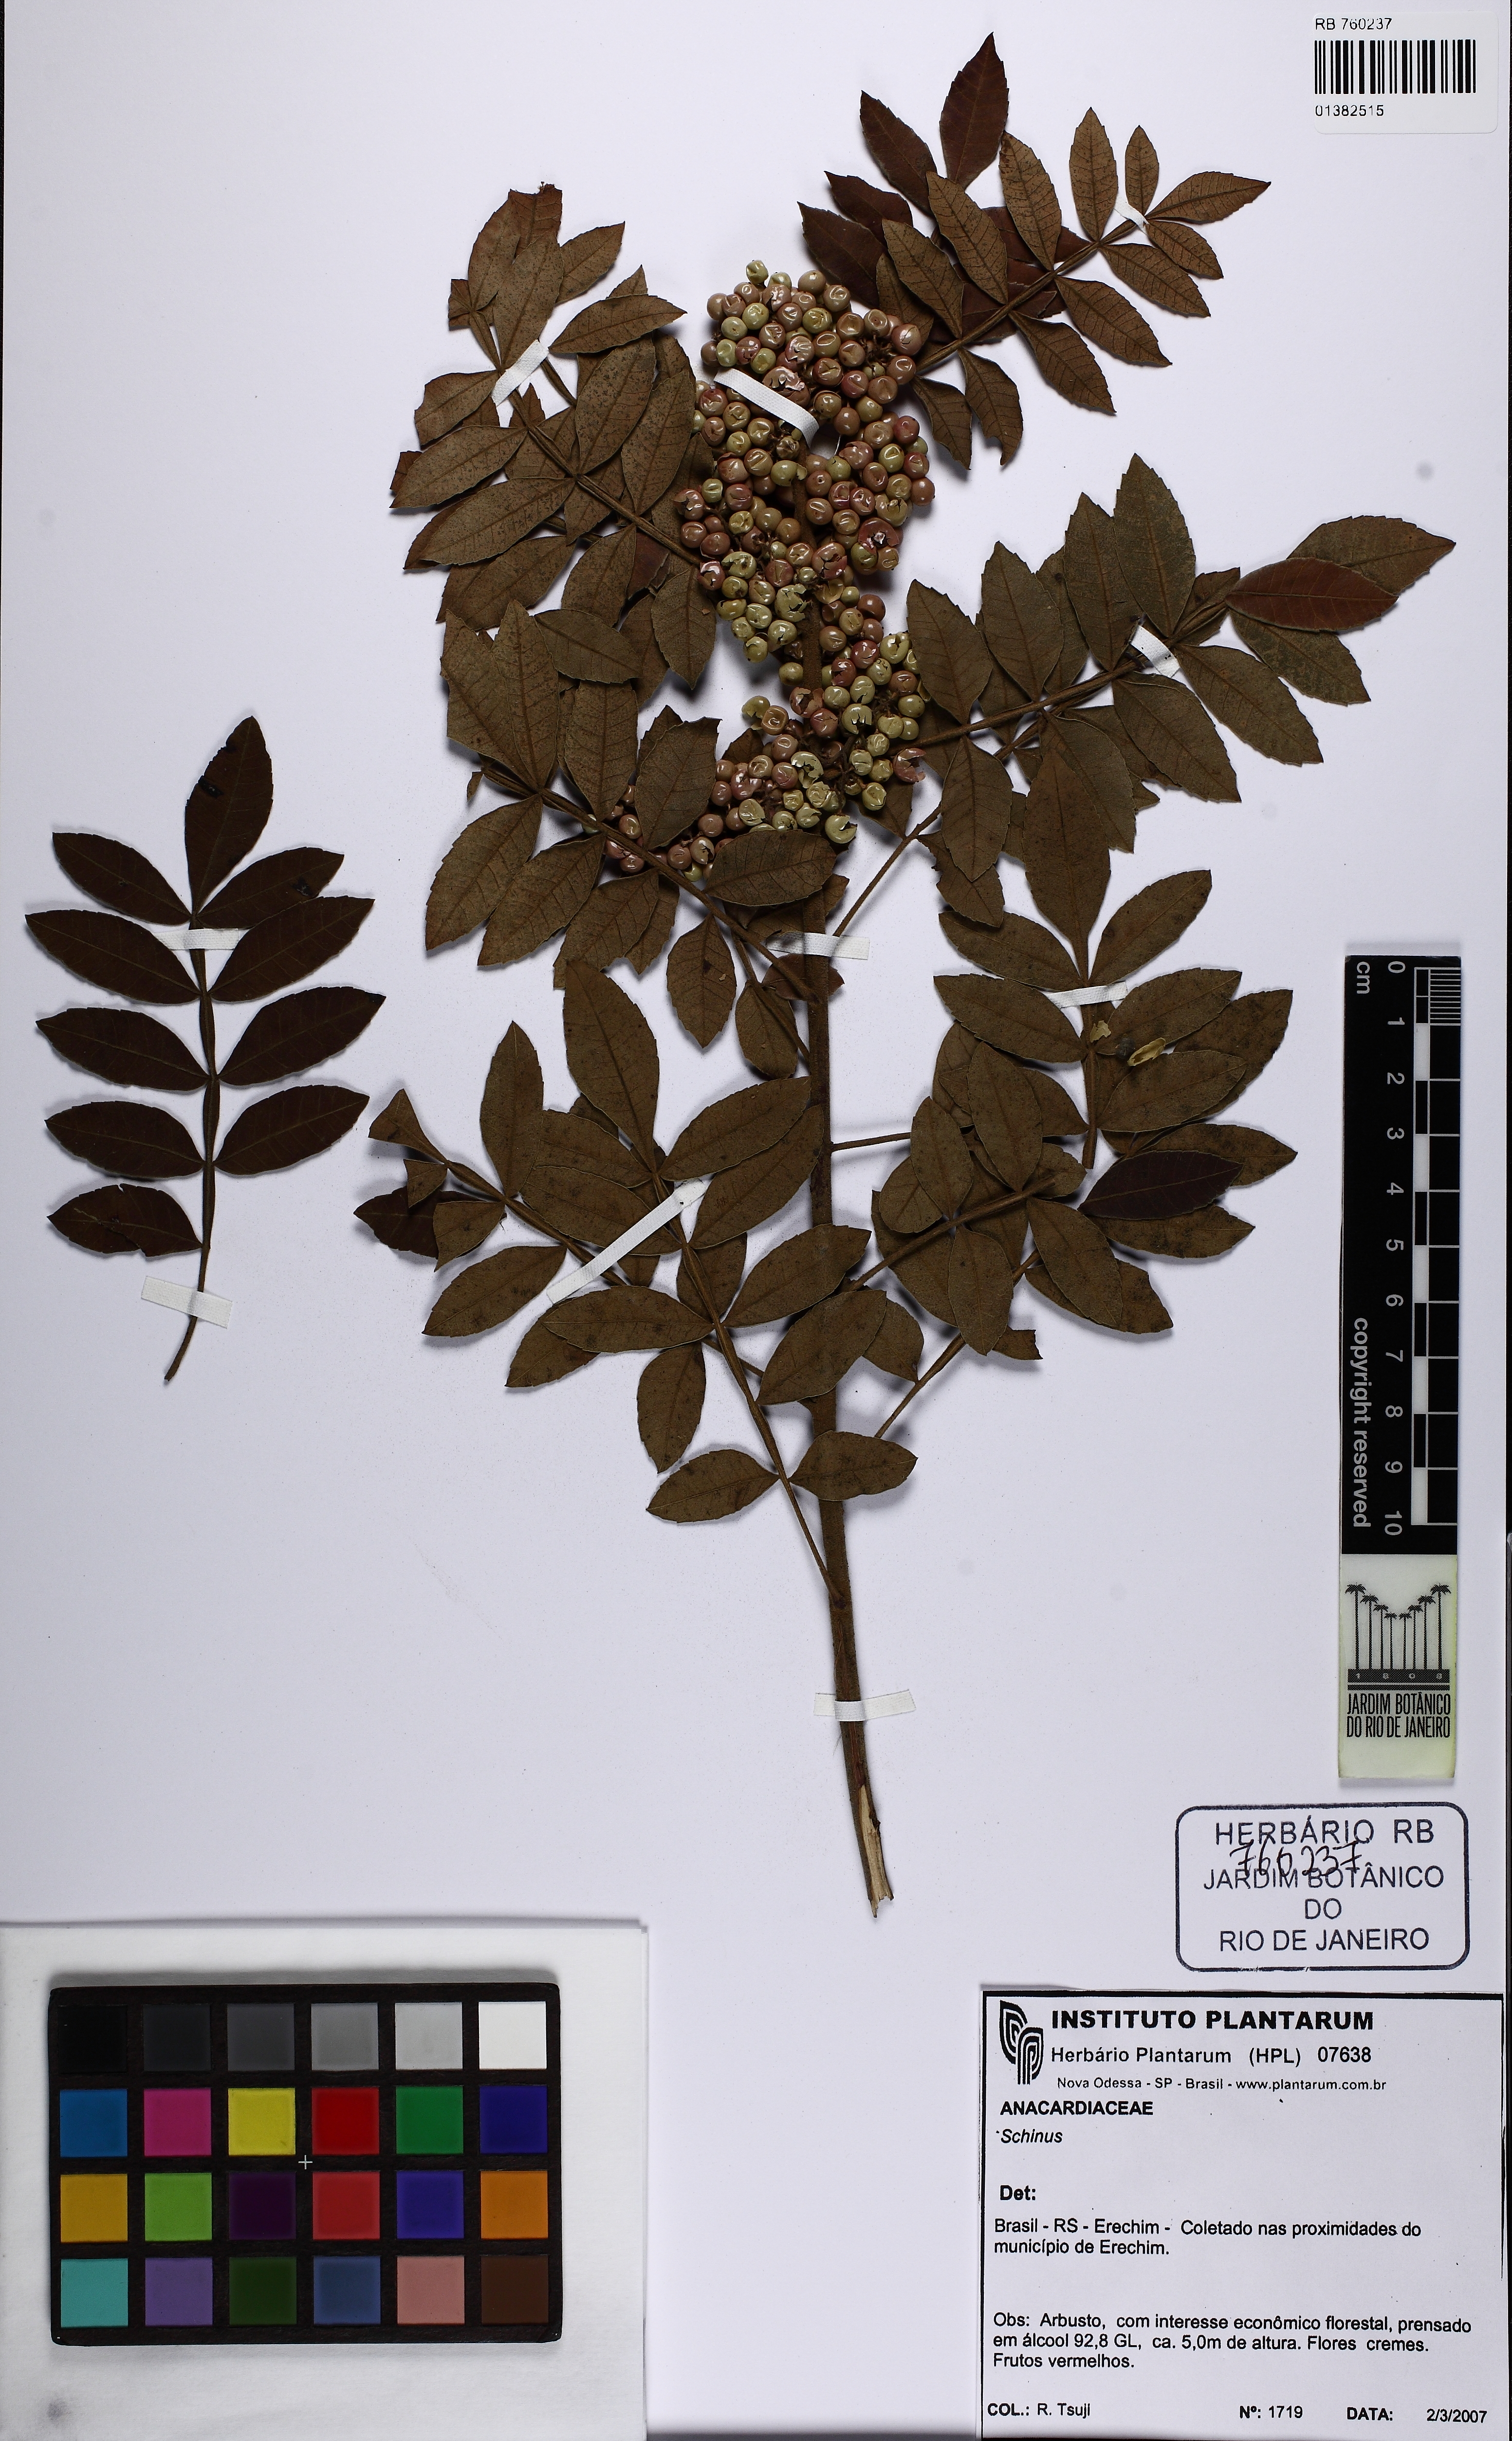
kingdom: Plantae
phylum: Tracheophyta
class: Magnoliopsida
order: Sapindales
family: Anacardiaceae
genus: Schinus
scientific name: Schinus
